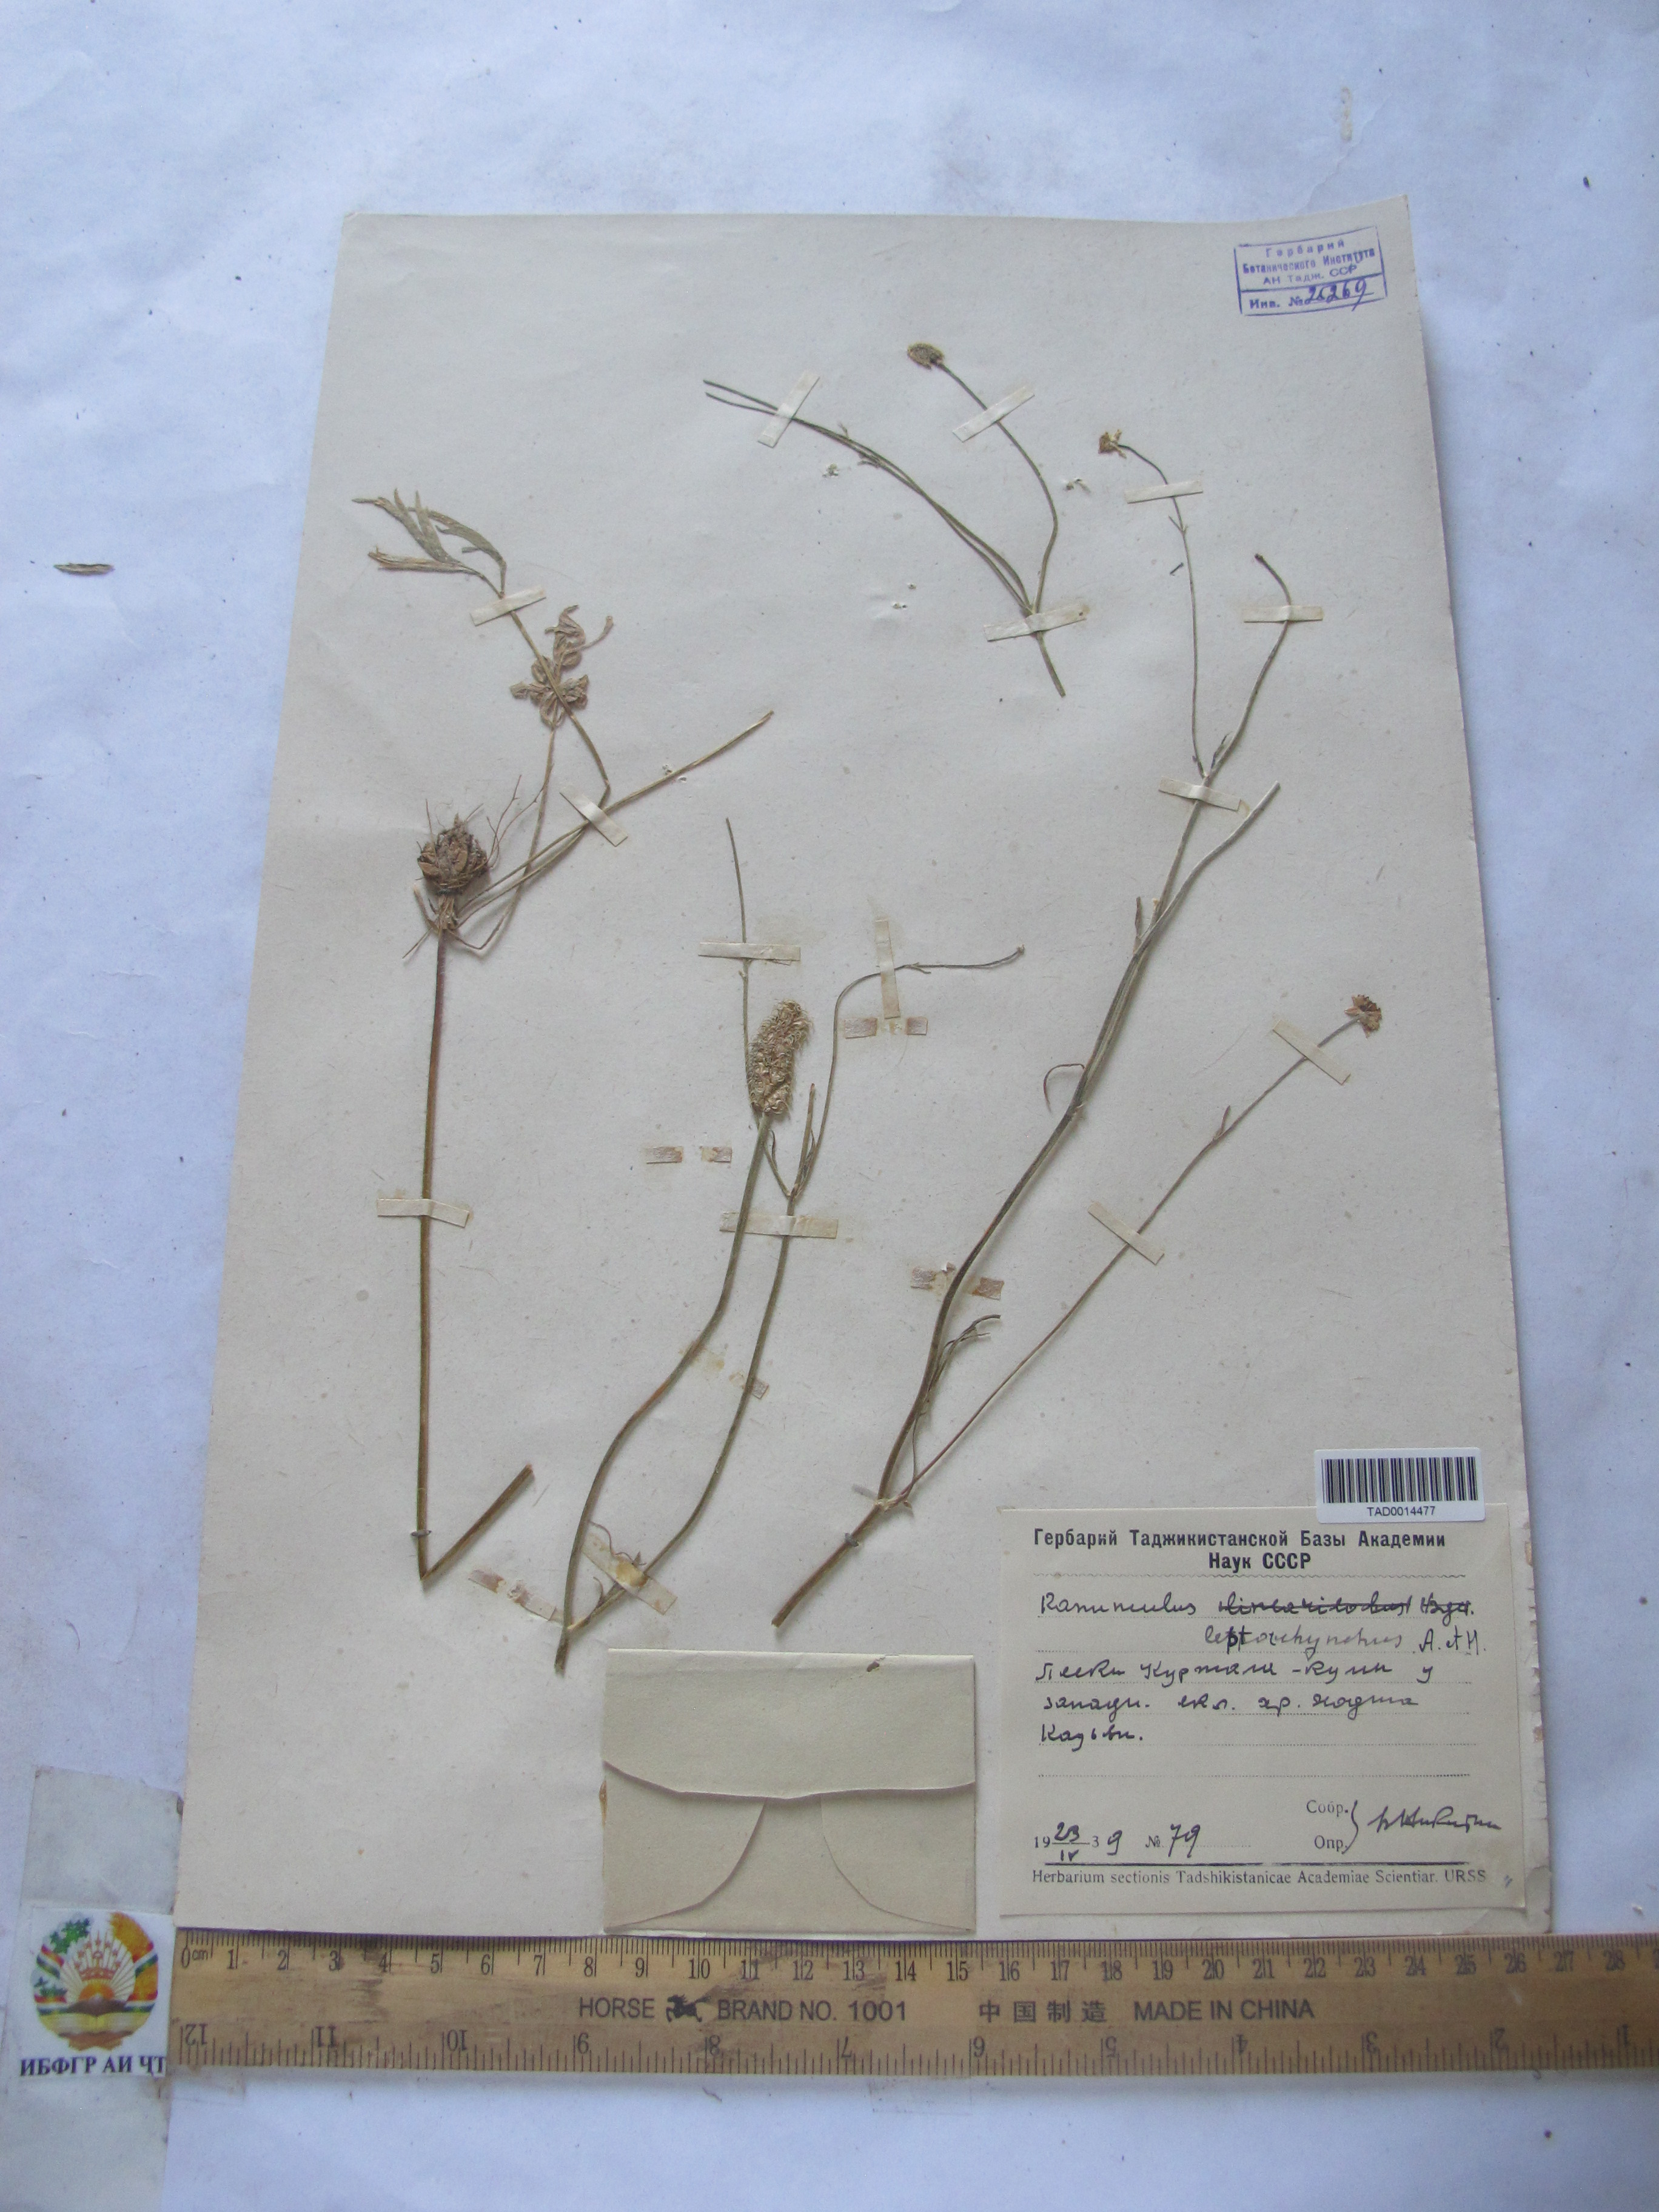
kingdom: Plantae
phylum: Tracheophyta
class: Magnoliopsida
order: Ranunculales
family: Ranunculaceae
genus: Ranunculus
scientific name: Ranunculus leptorrhynchus
